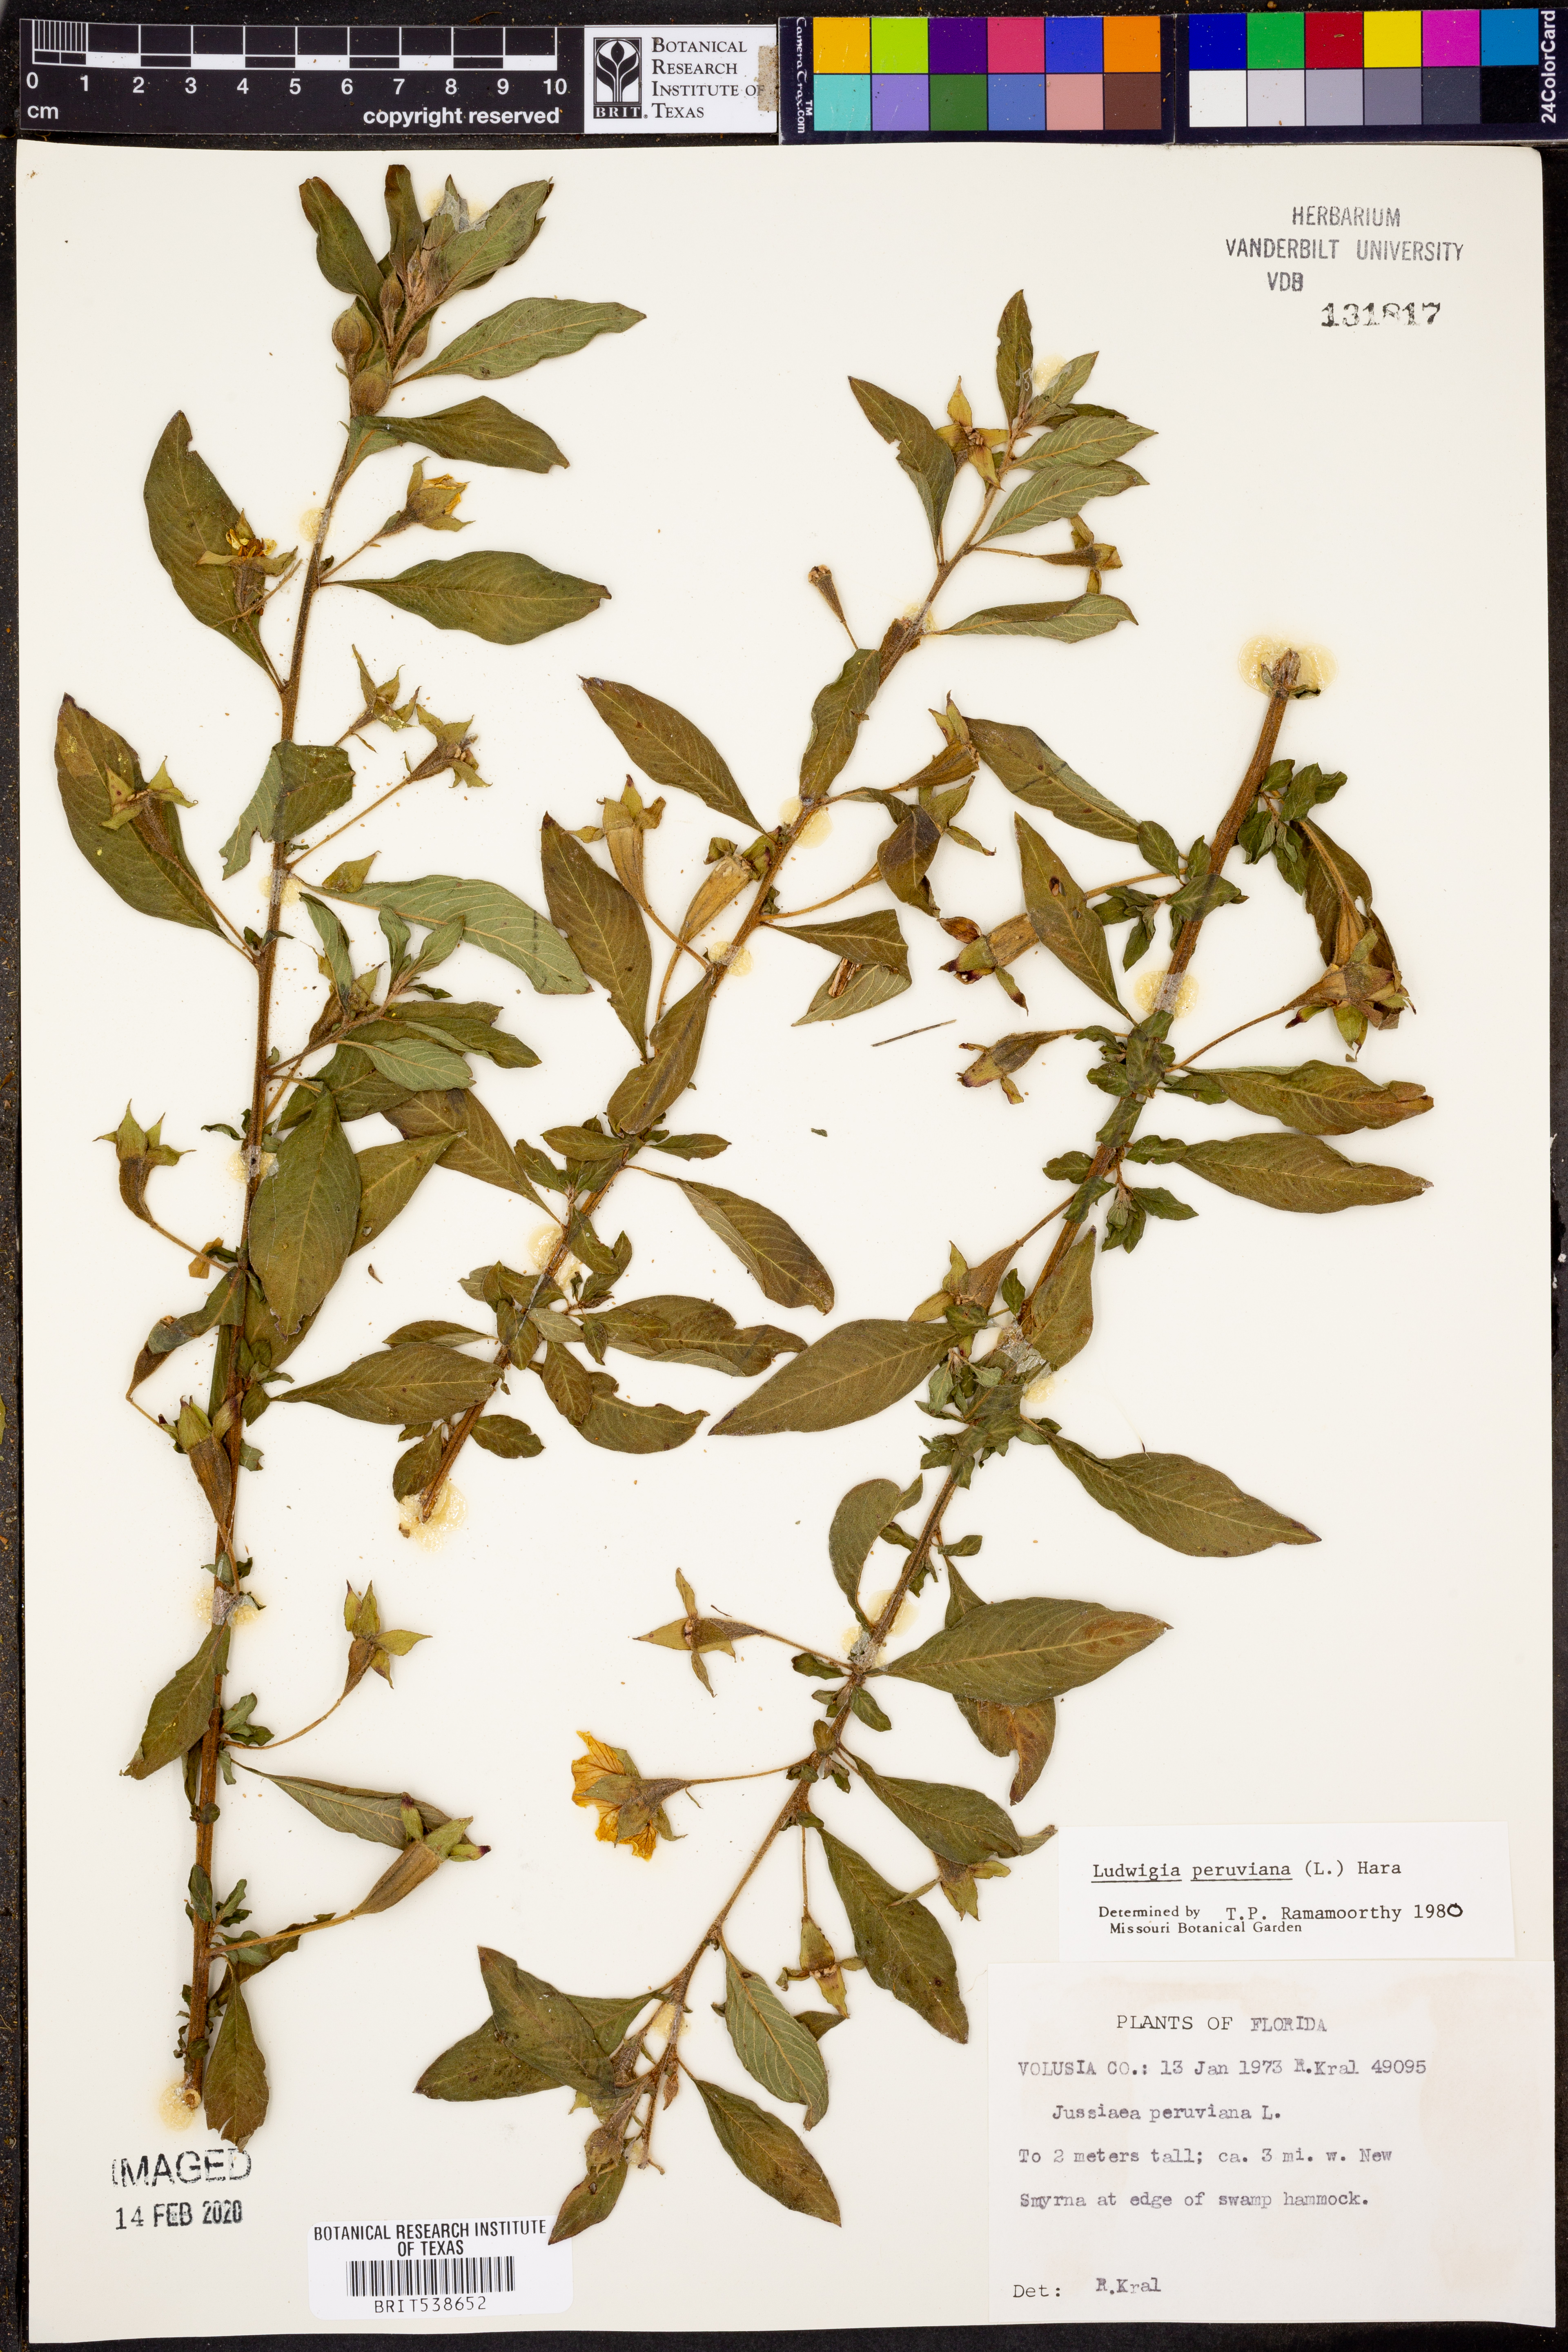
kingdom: Plantae
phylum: Tracheophyta
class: Magnoliopsida
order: Myrtales
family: Onagraceae
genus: Ludwigia
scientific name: Ludwigia peruviana
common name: Peruvian primrose-willow
